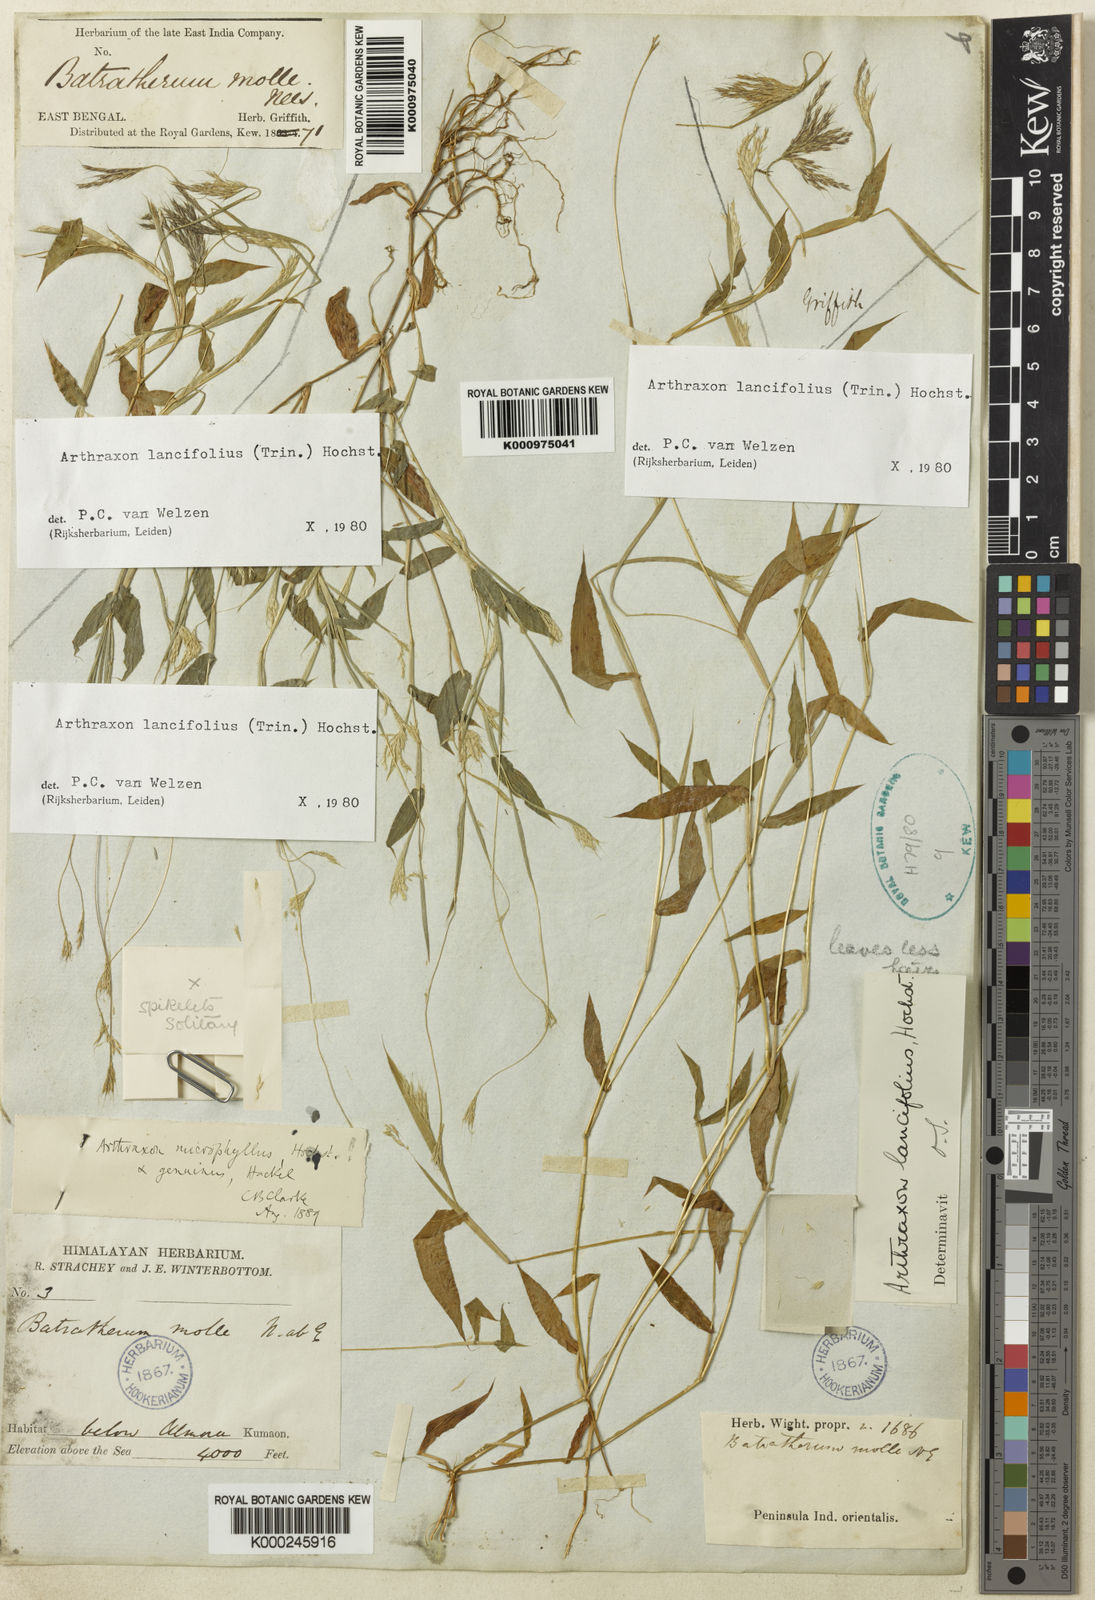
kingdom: Plantae
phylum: Tracheophyta
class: Liliopsida
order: Poales
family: Poaceae
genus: Arthraxon
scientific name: Arthraxon lancifolius
